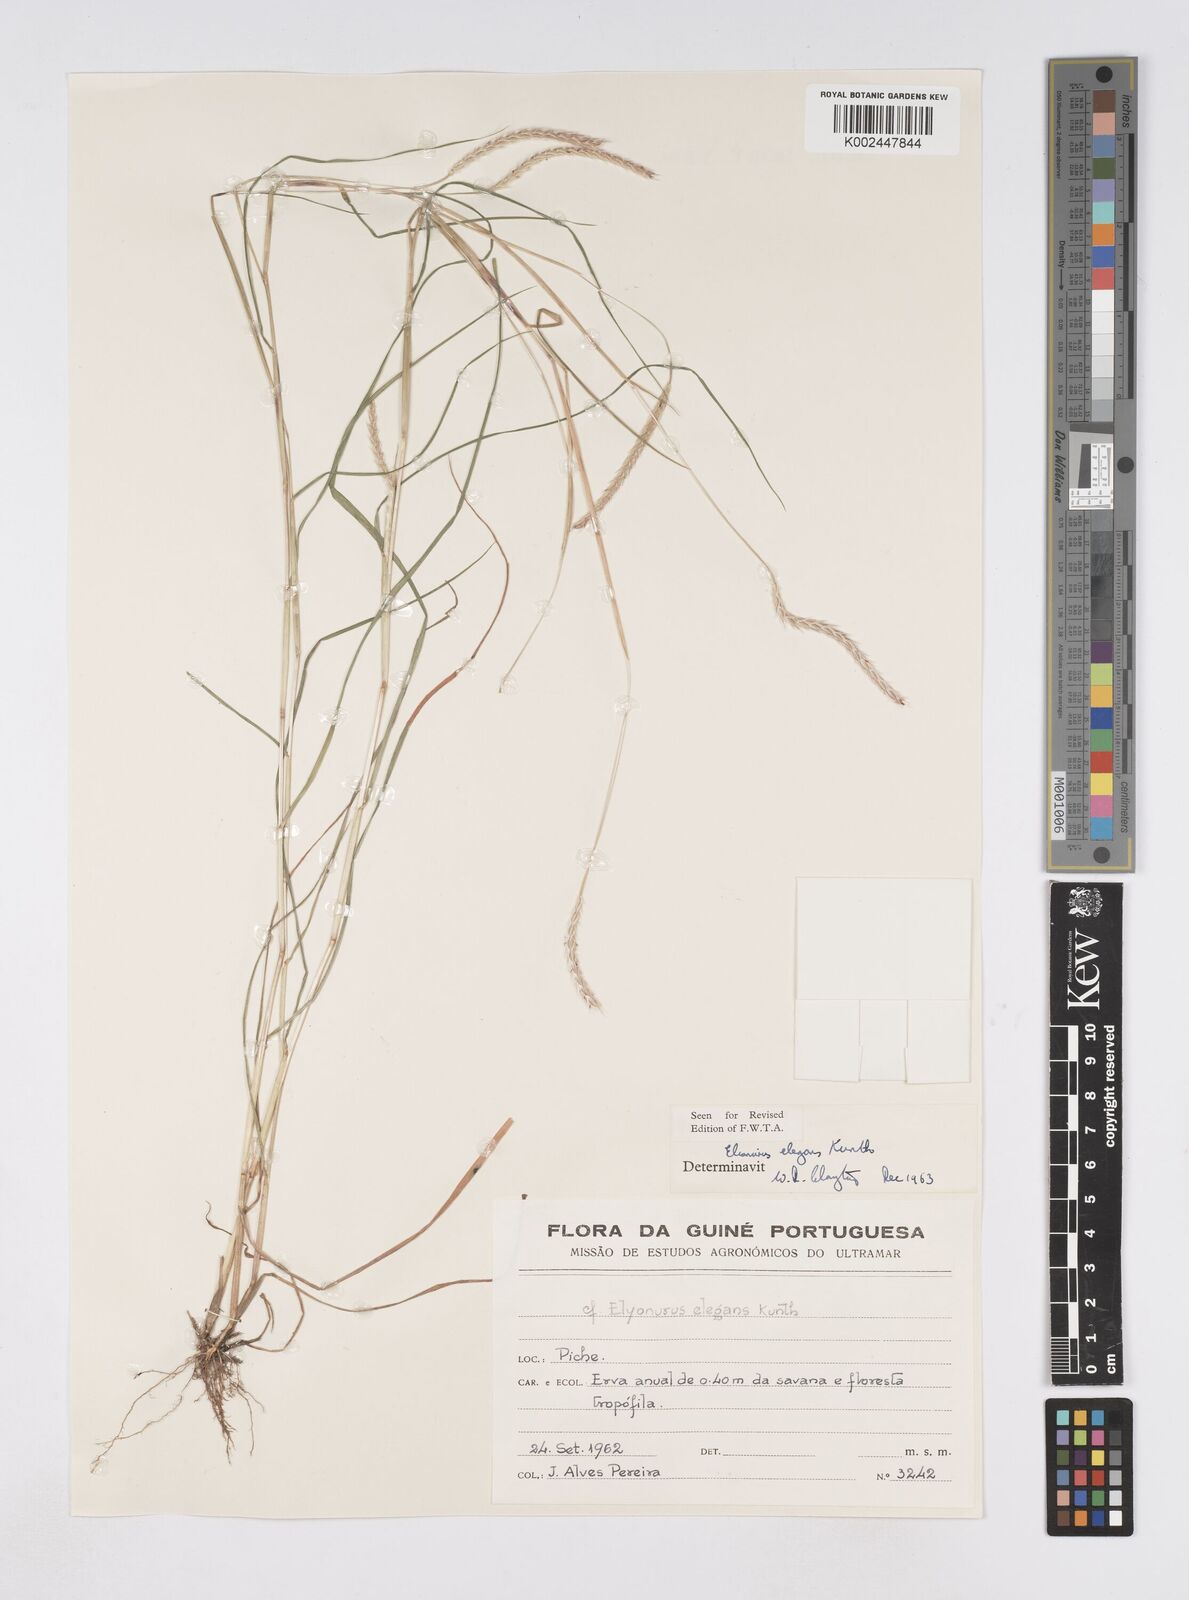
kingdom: Plantae
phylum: Tracheophyta
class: Liliopsida
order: Poales
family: Poaceae
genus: Elionurus
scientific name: Elionurus elegans
